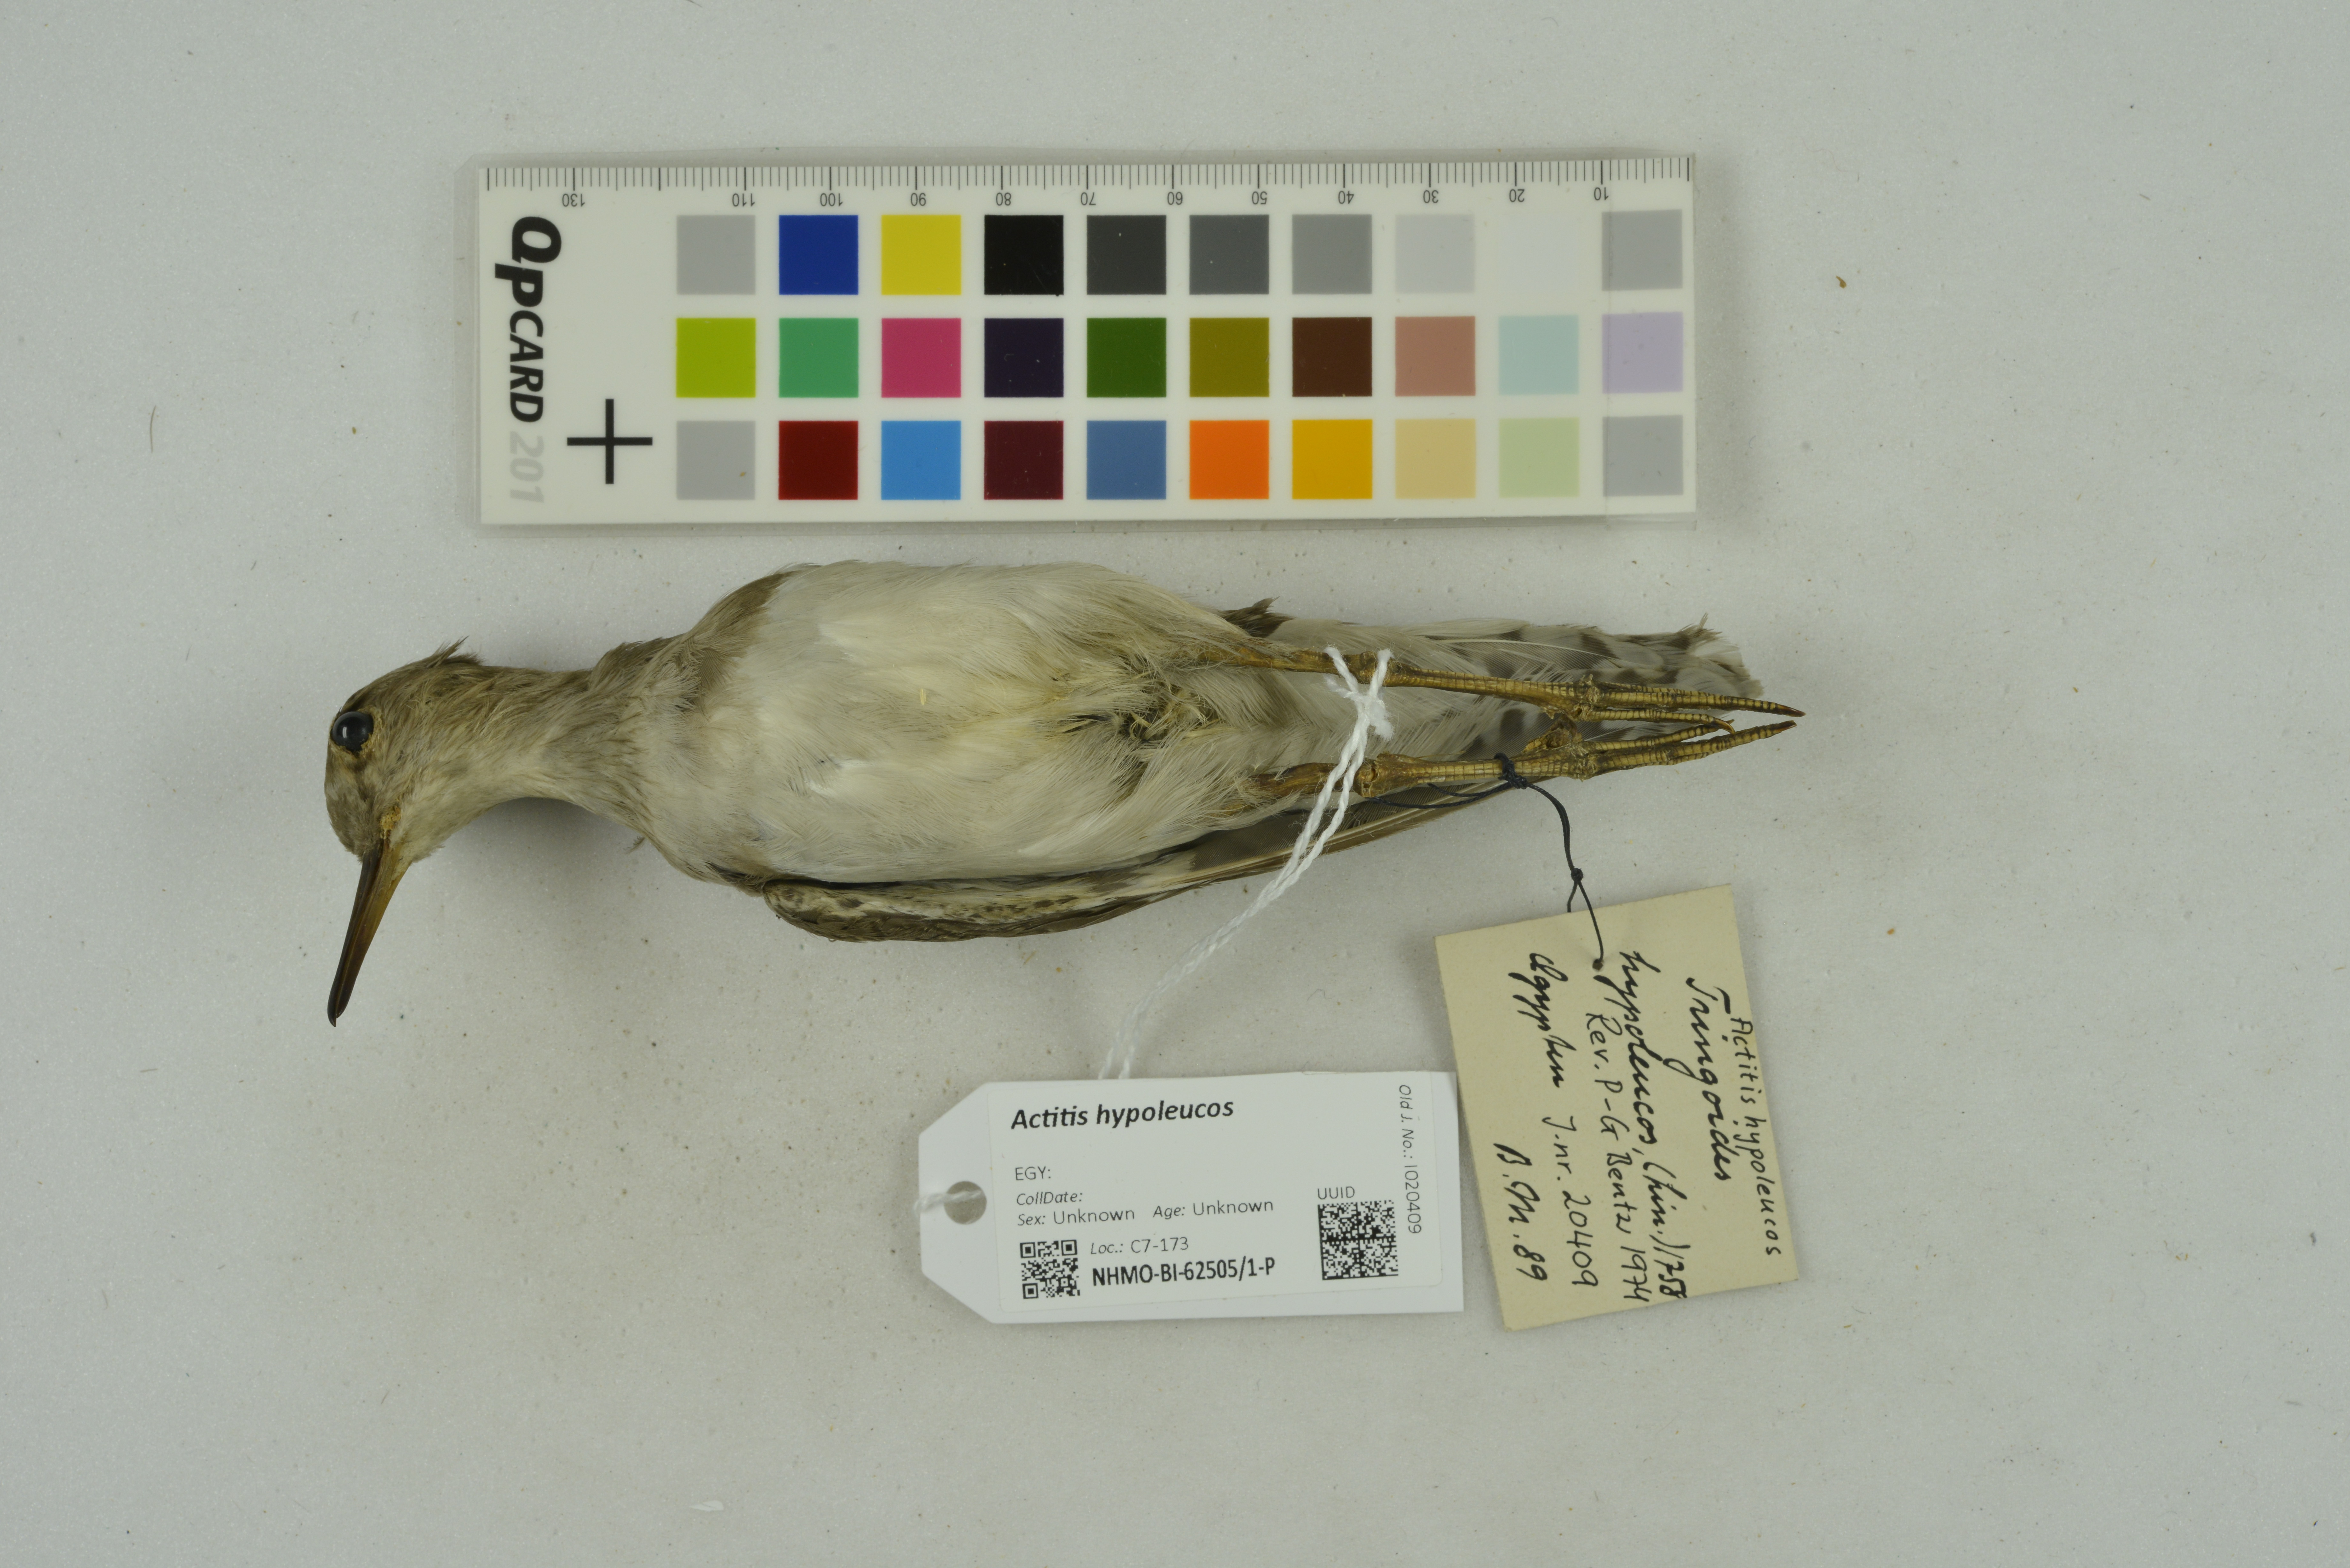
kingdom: Animalia
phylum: Chordata
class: Aves
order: Charadriiformes
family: Scolopacidae
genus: Actitis
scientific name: Actitis hypoleucos
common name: Common sandpiper
